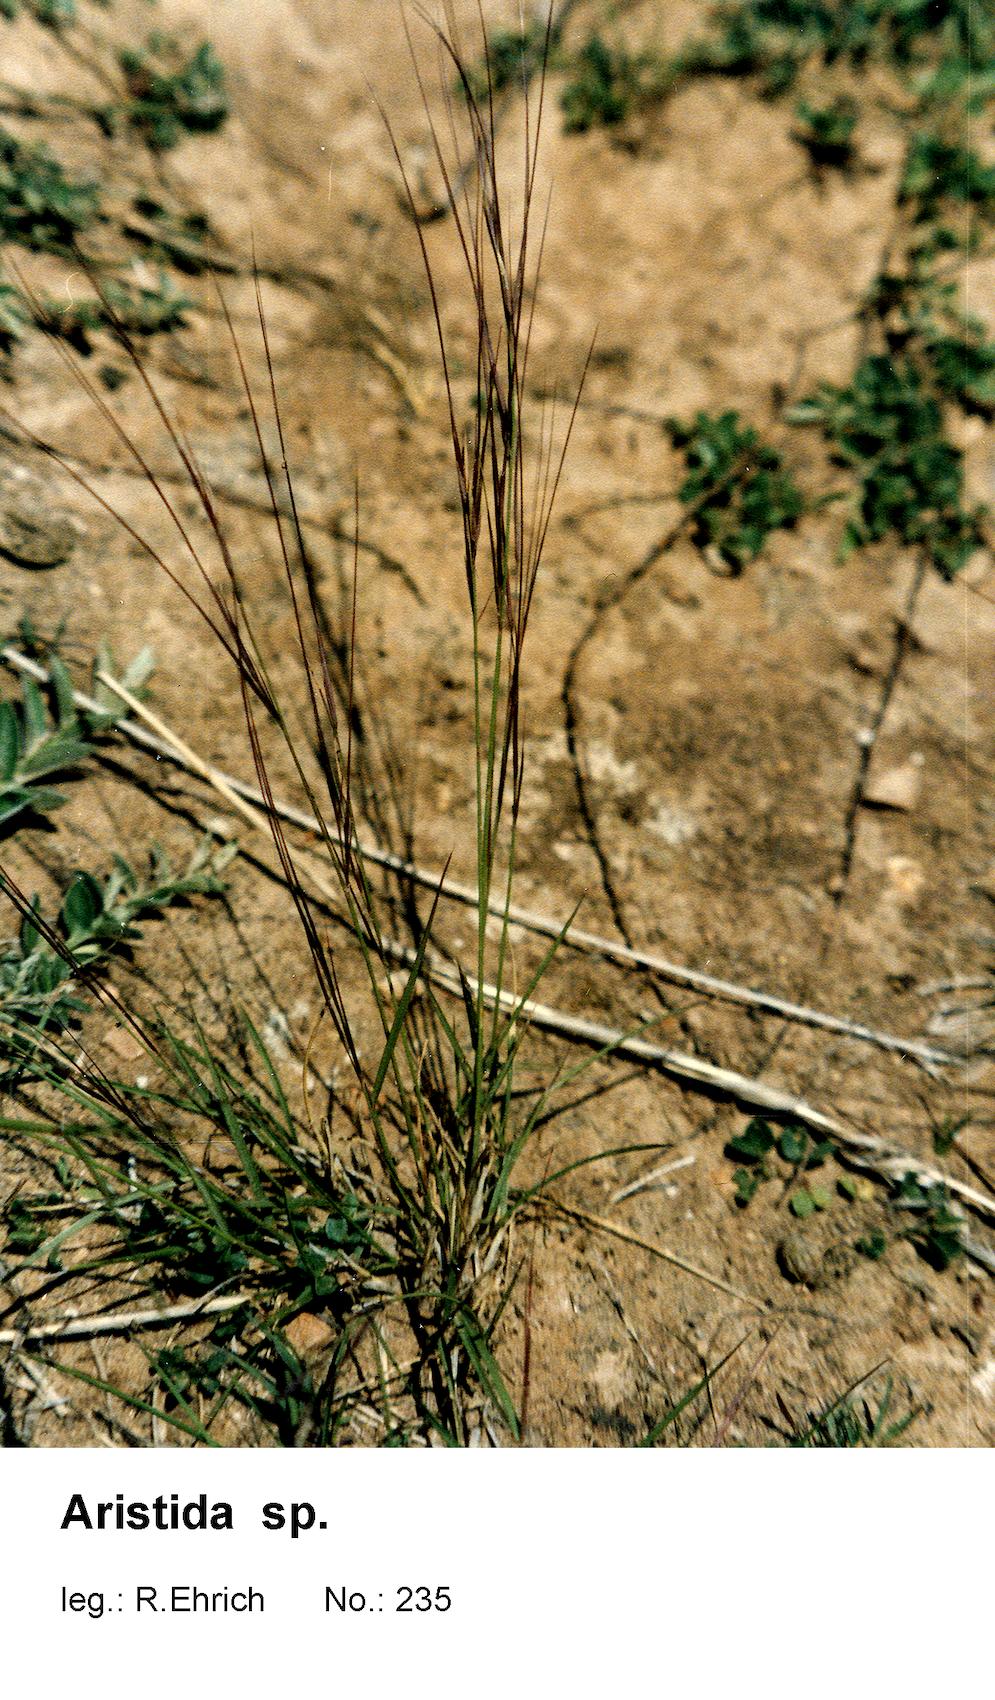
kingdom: Plantae
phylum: Tracheophyta
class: Liliopsida
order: Poales
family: Poaceae
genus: Aristida
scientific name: Aristida
